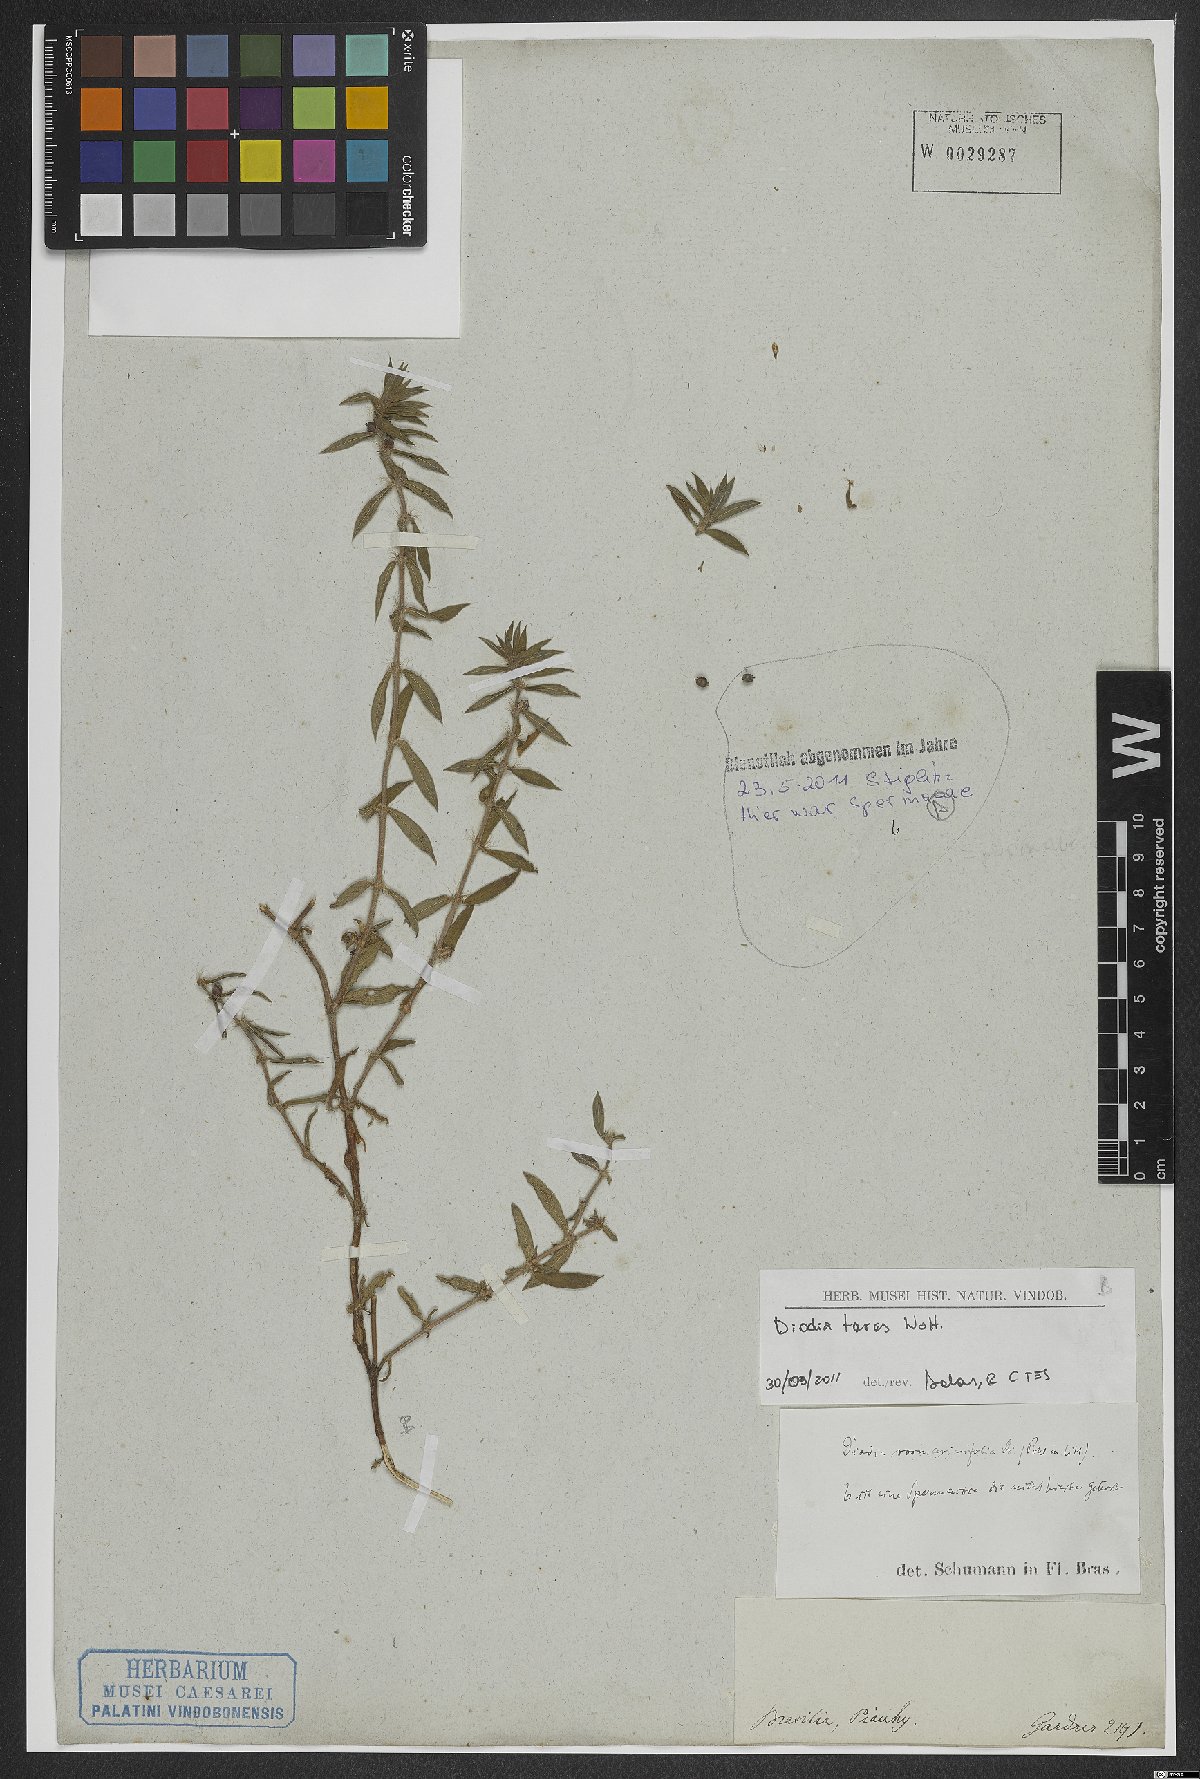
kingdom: Plantae
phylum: Tracheophyta
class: Magnoliopsida
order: Gentianales
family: Rubiaceae
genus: Hexasepalum
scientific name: Hexasepalum teres
